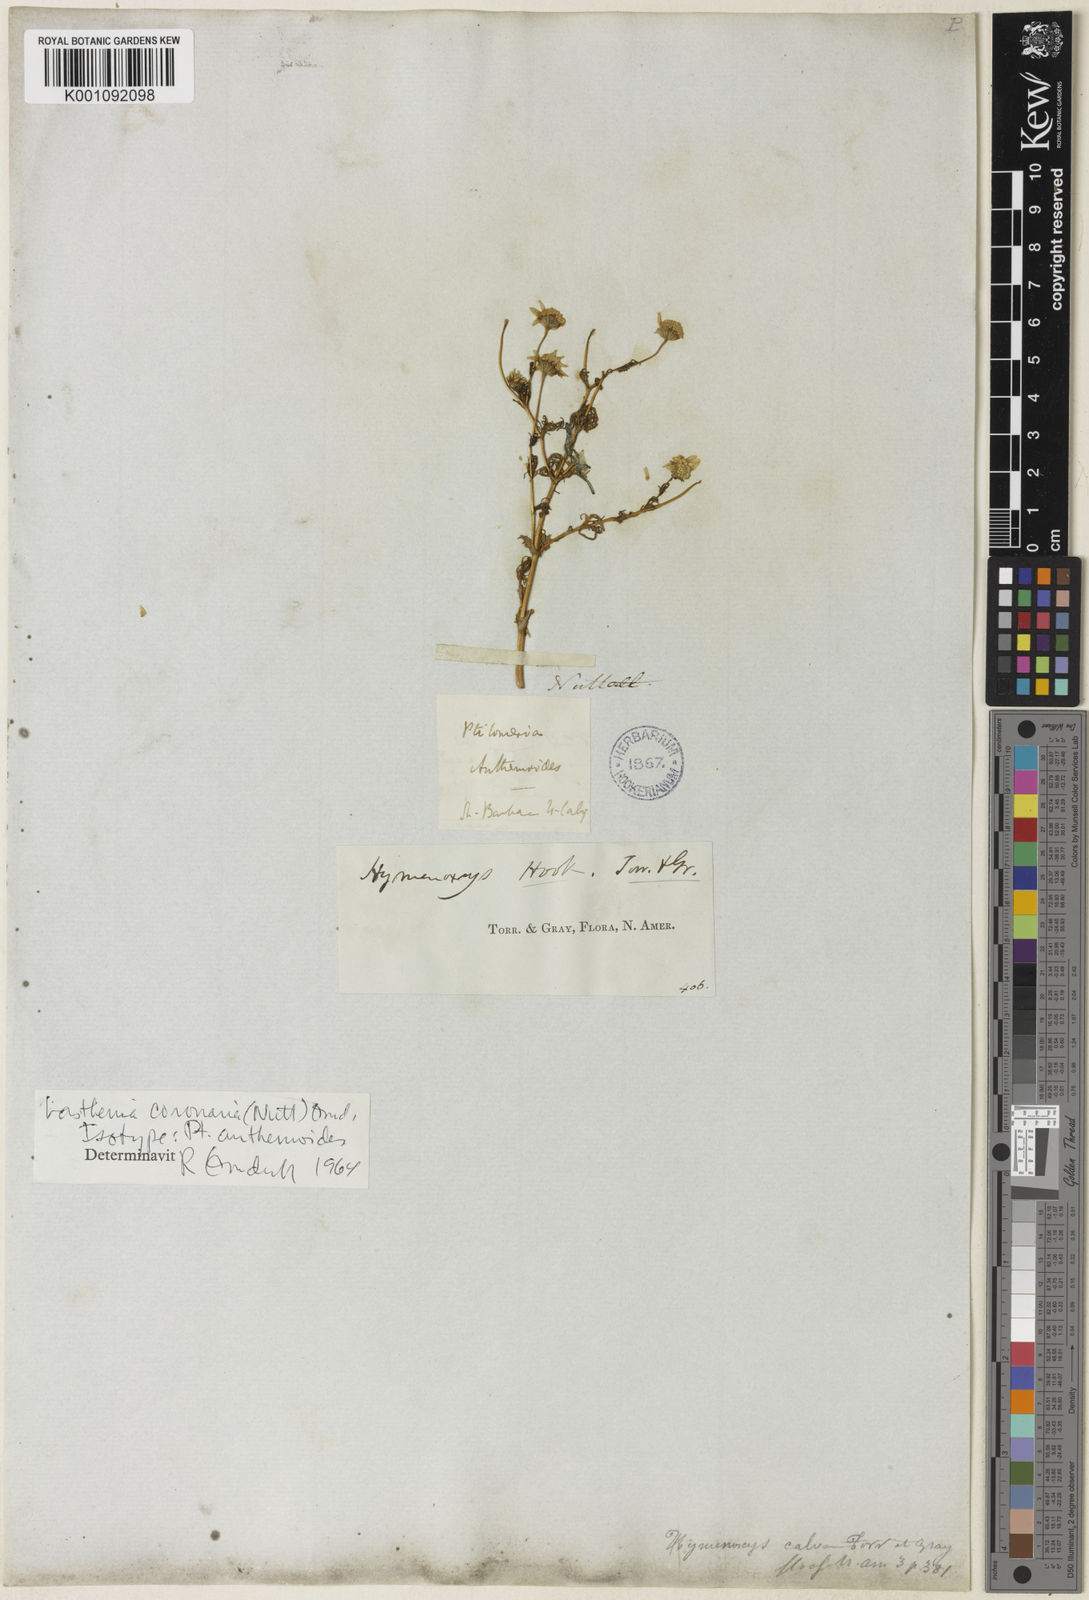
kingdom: Plantae
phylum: Tracheophyta
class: Magnoliopsida
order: Asterales
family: Asteraceae
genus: Lasthenia
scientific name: Lasthenia coronaria
